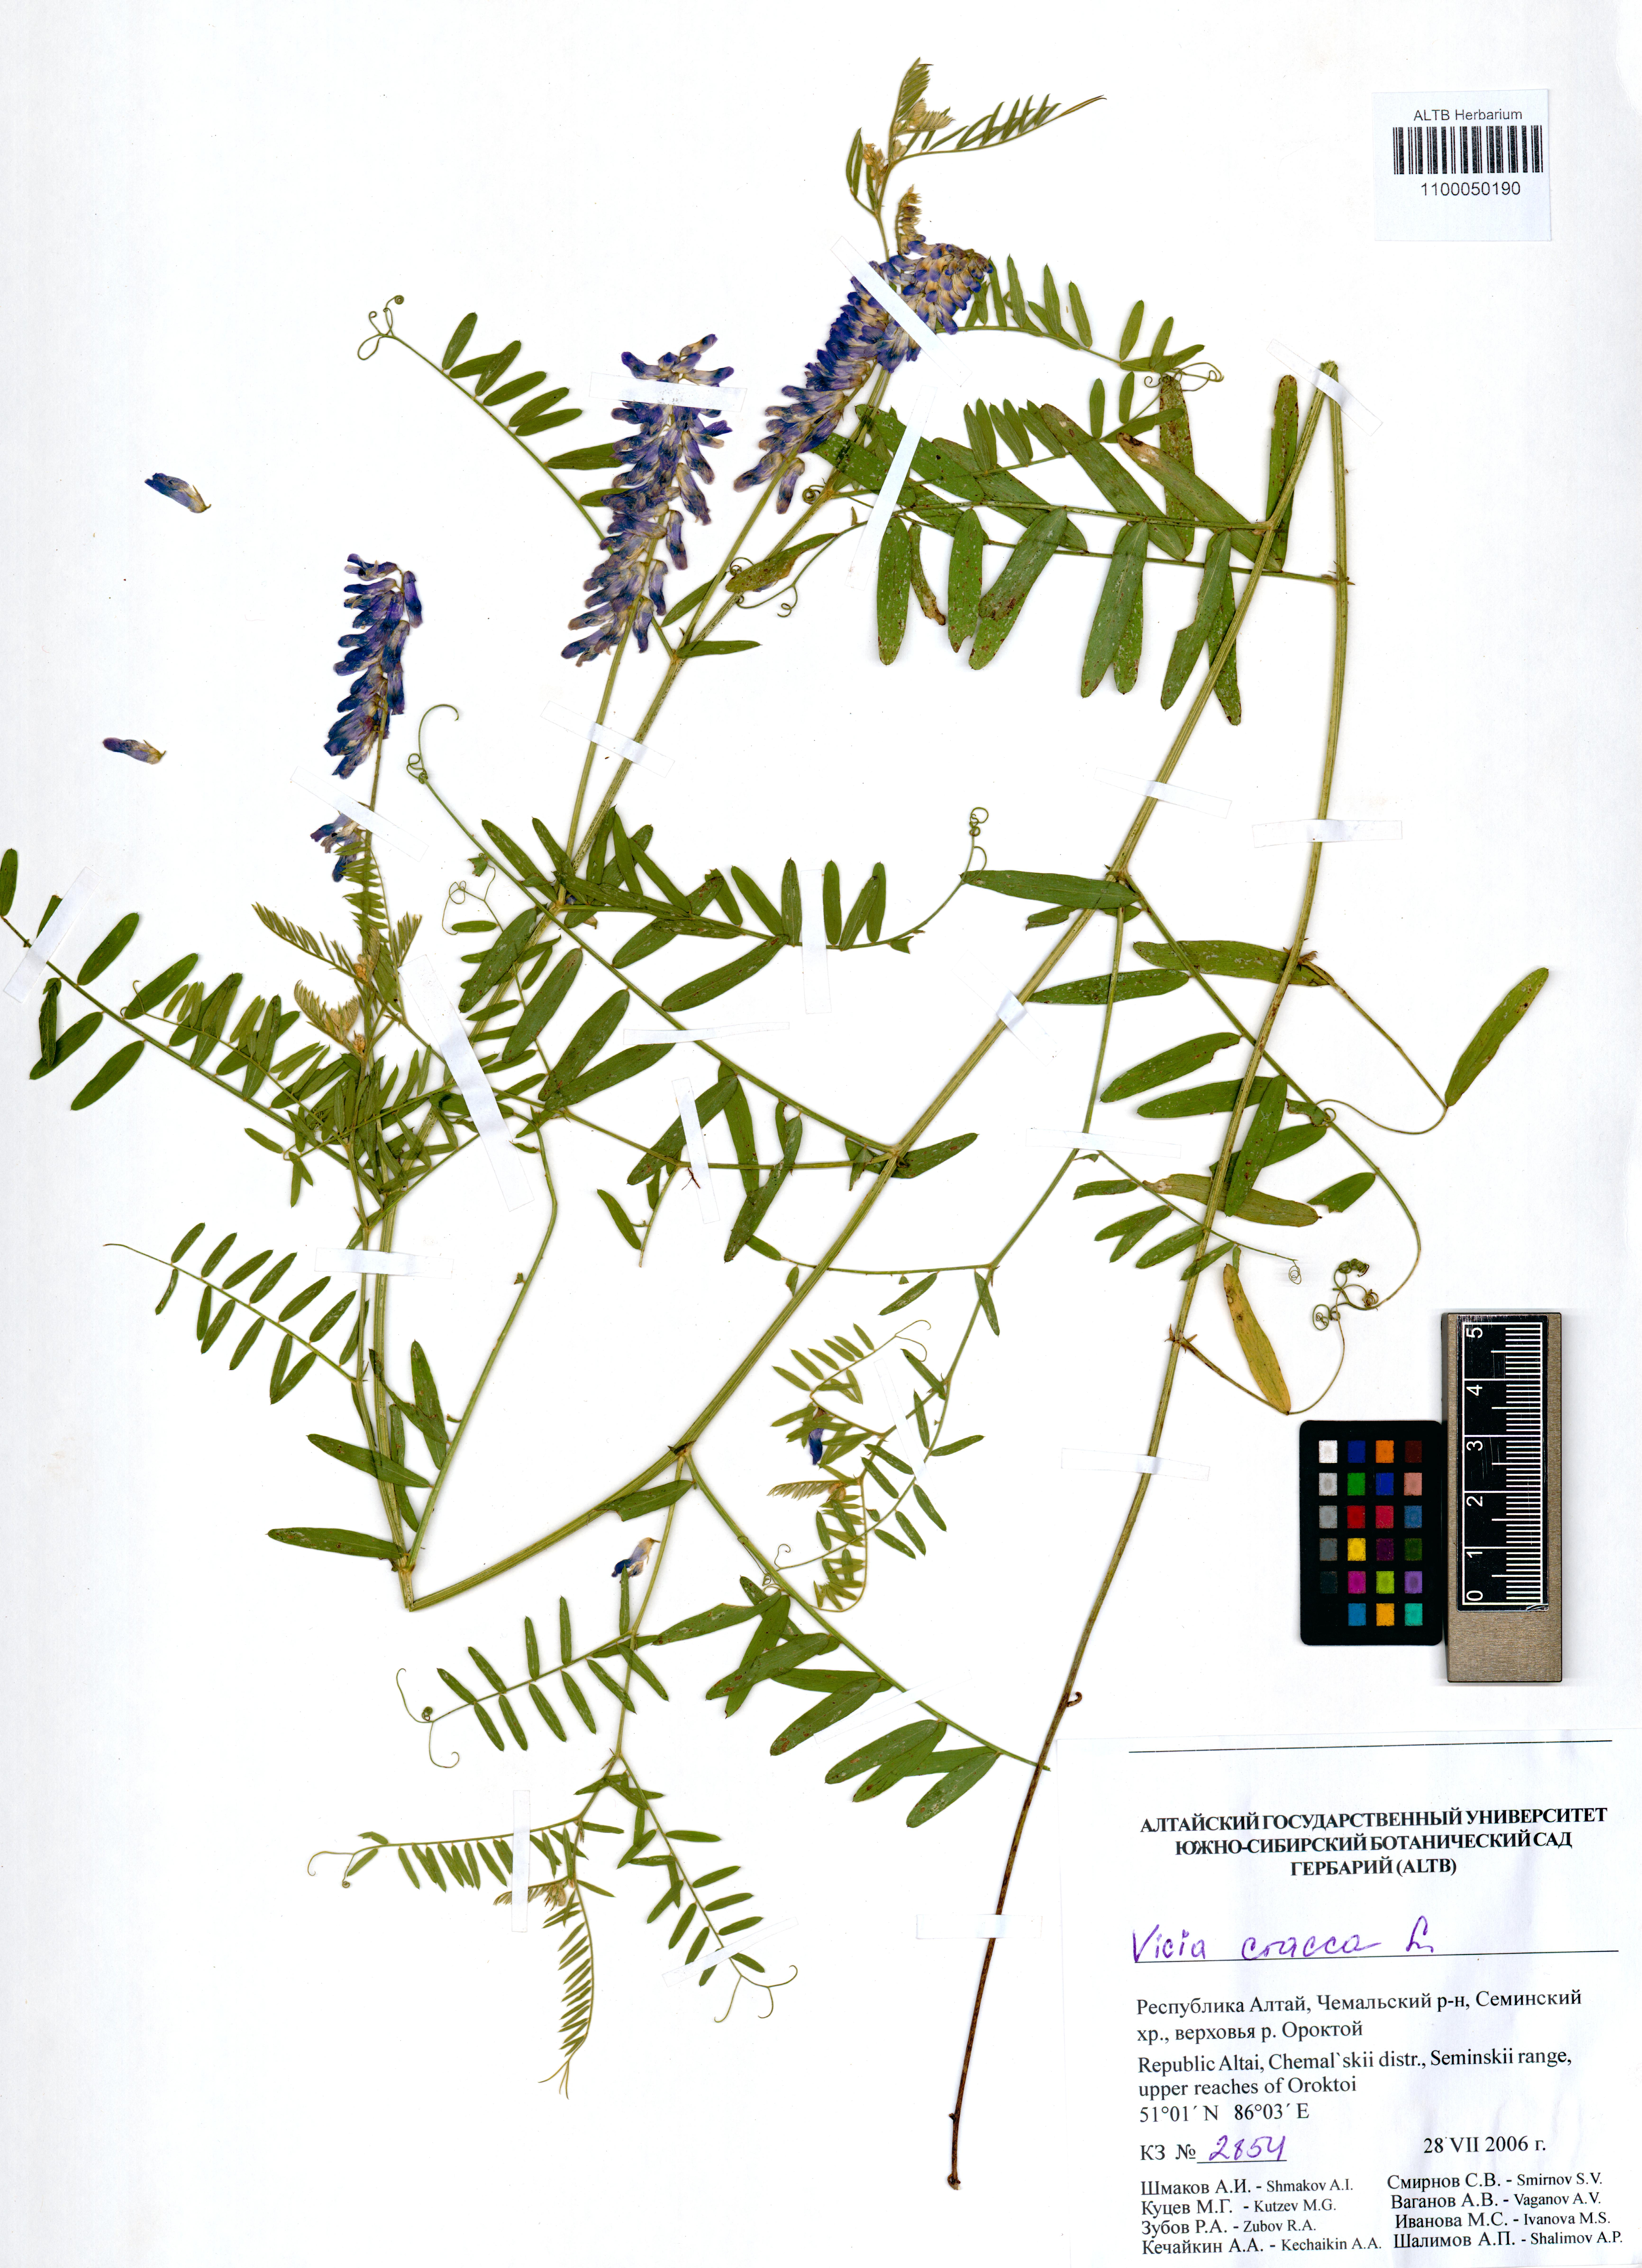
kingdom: Plantae
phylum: Tracheophyta
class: Magnoliopsida
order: Fabales
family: Fabaceae
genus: Vicia
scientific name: Vicia cracca
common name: Bird vetch
